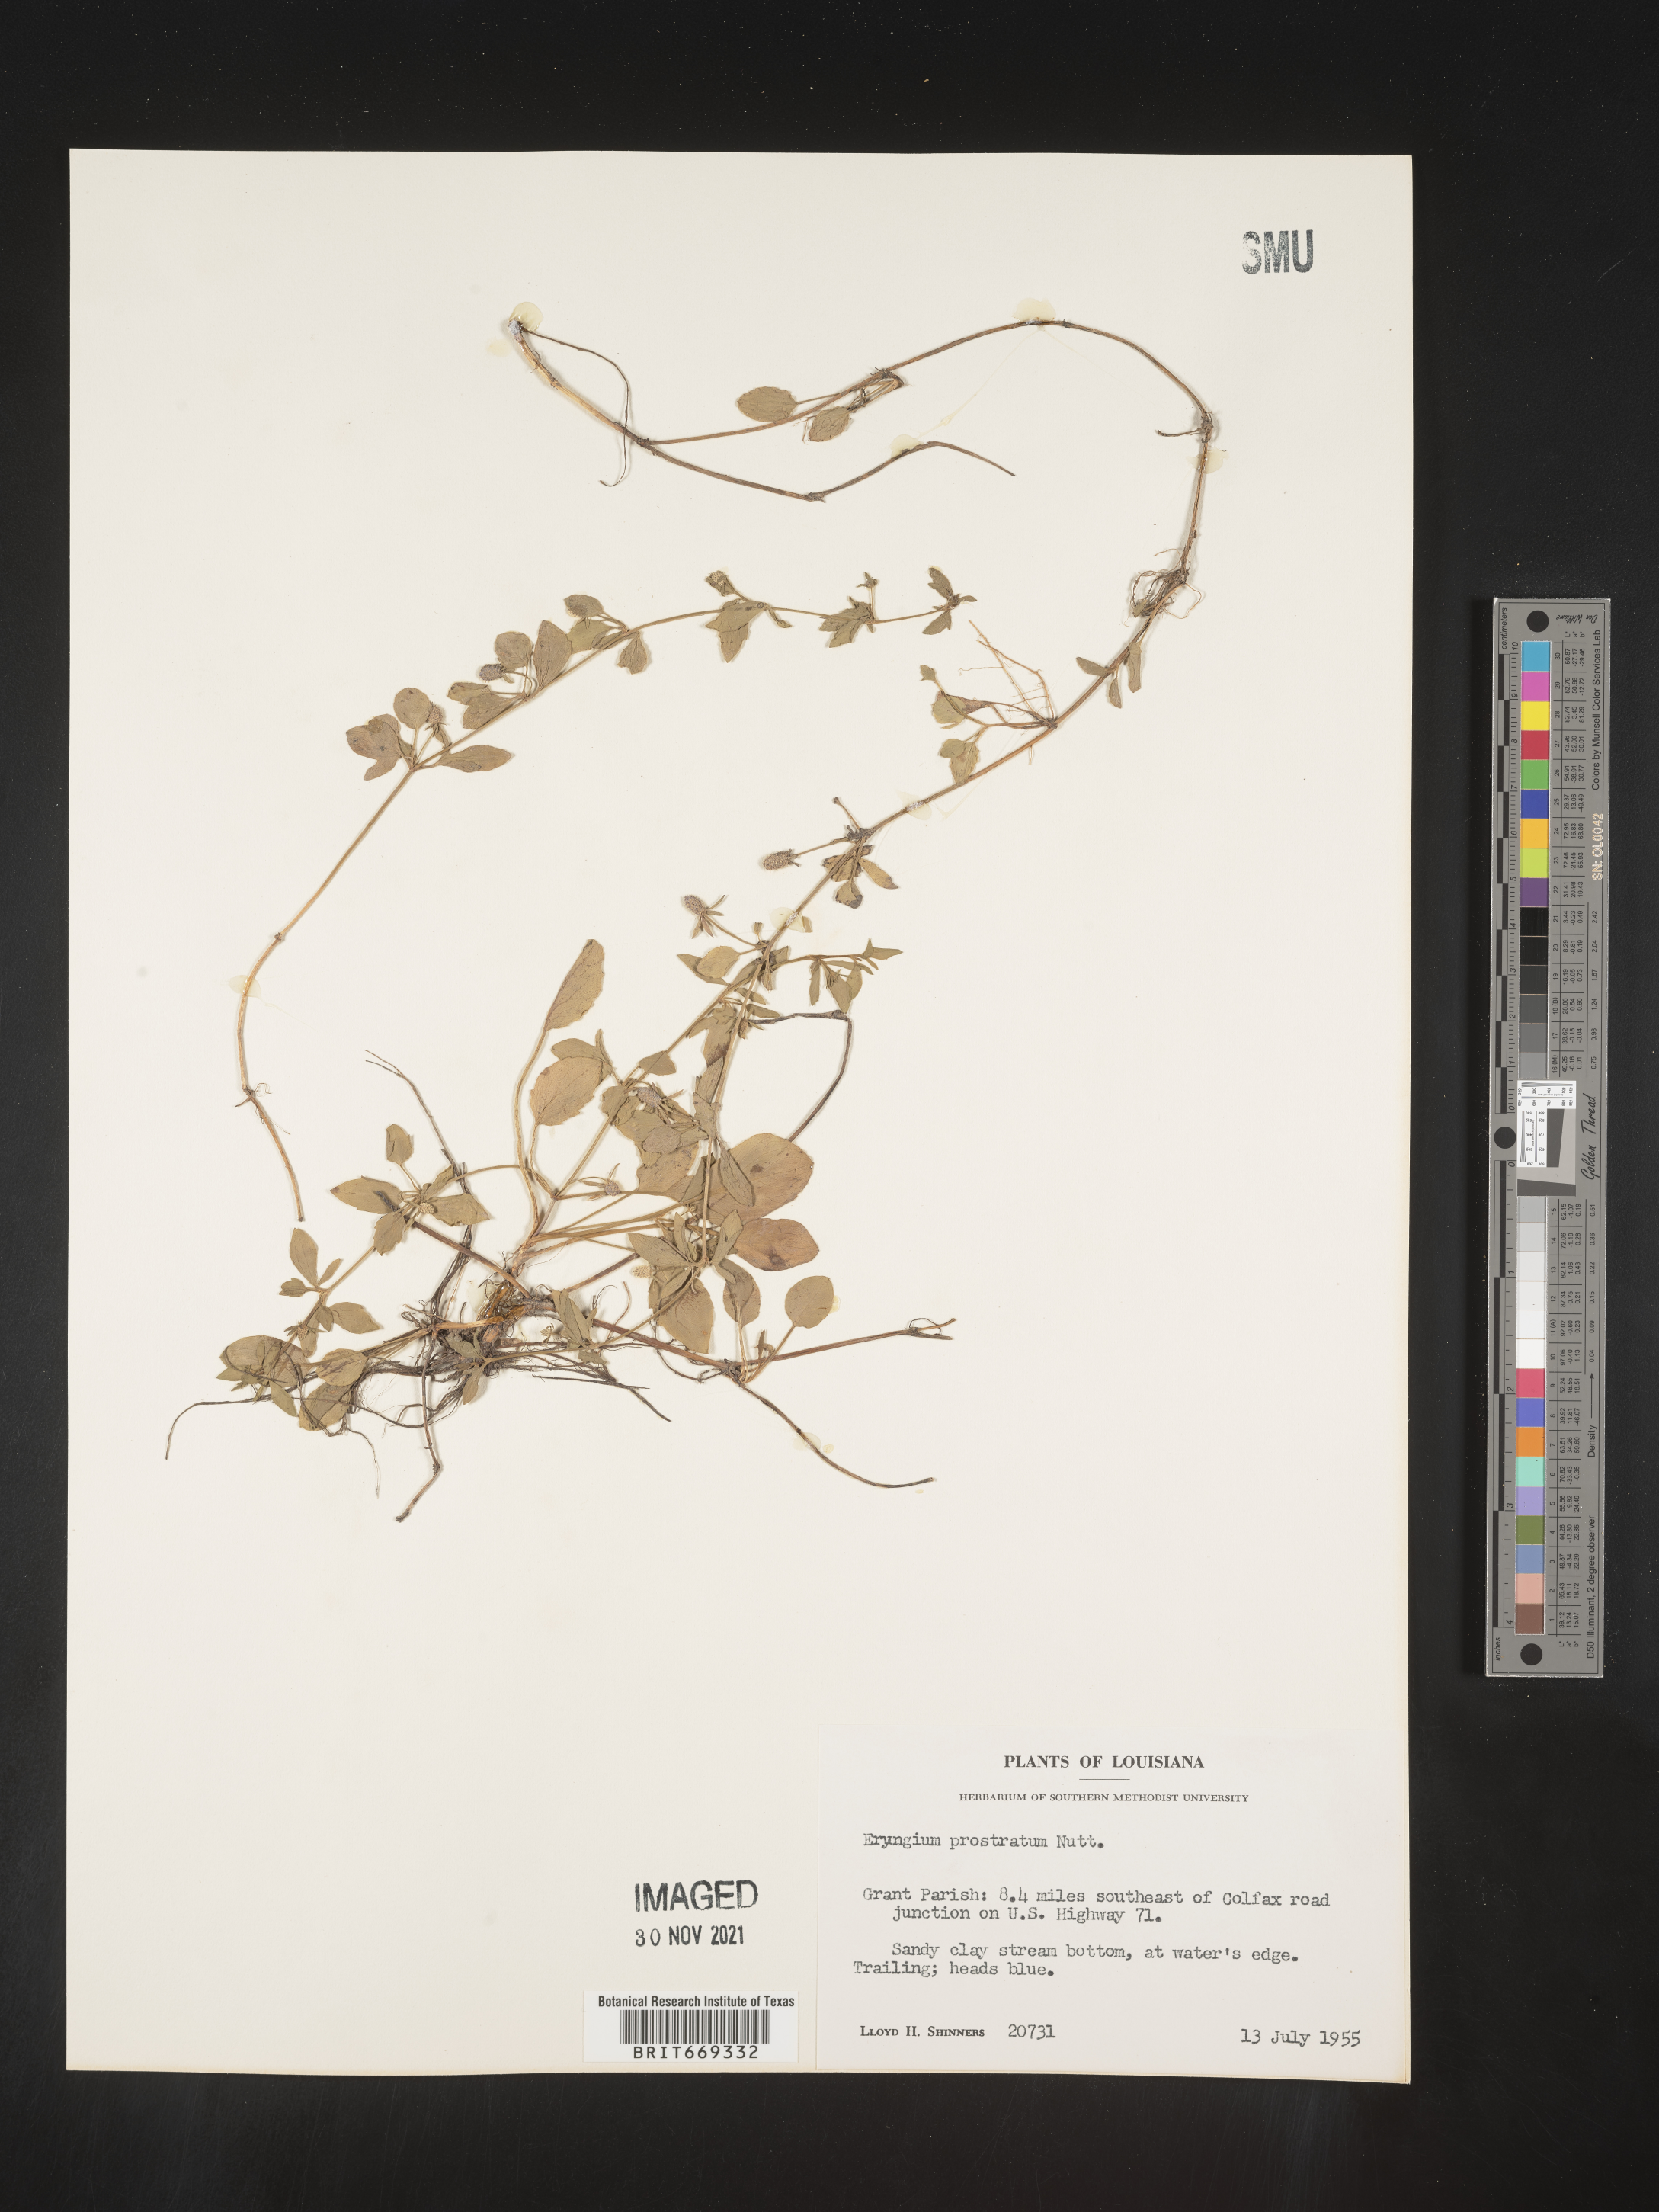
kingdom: Plantae
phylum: Tracheophyta
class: Magnoliopsida
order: Apiales
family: Apiaceae
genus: Eryngium
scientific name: Eryngium prostratum
